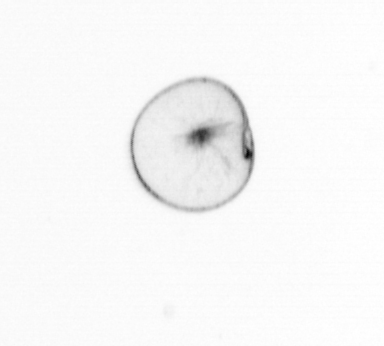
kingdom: Chromista
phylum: Myzozoa
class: Dinophyceae
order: Noctilucales
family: Noctilucaceae
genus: Noctiluca
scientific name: Noctiluca scintillans
